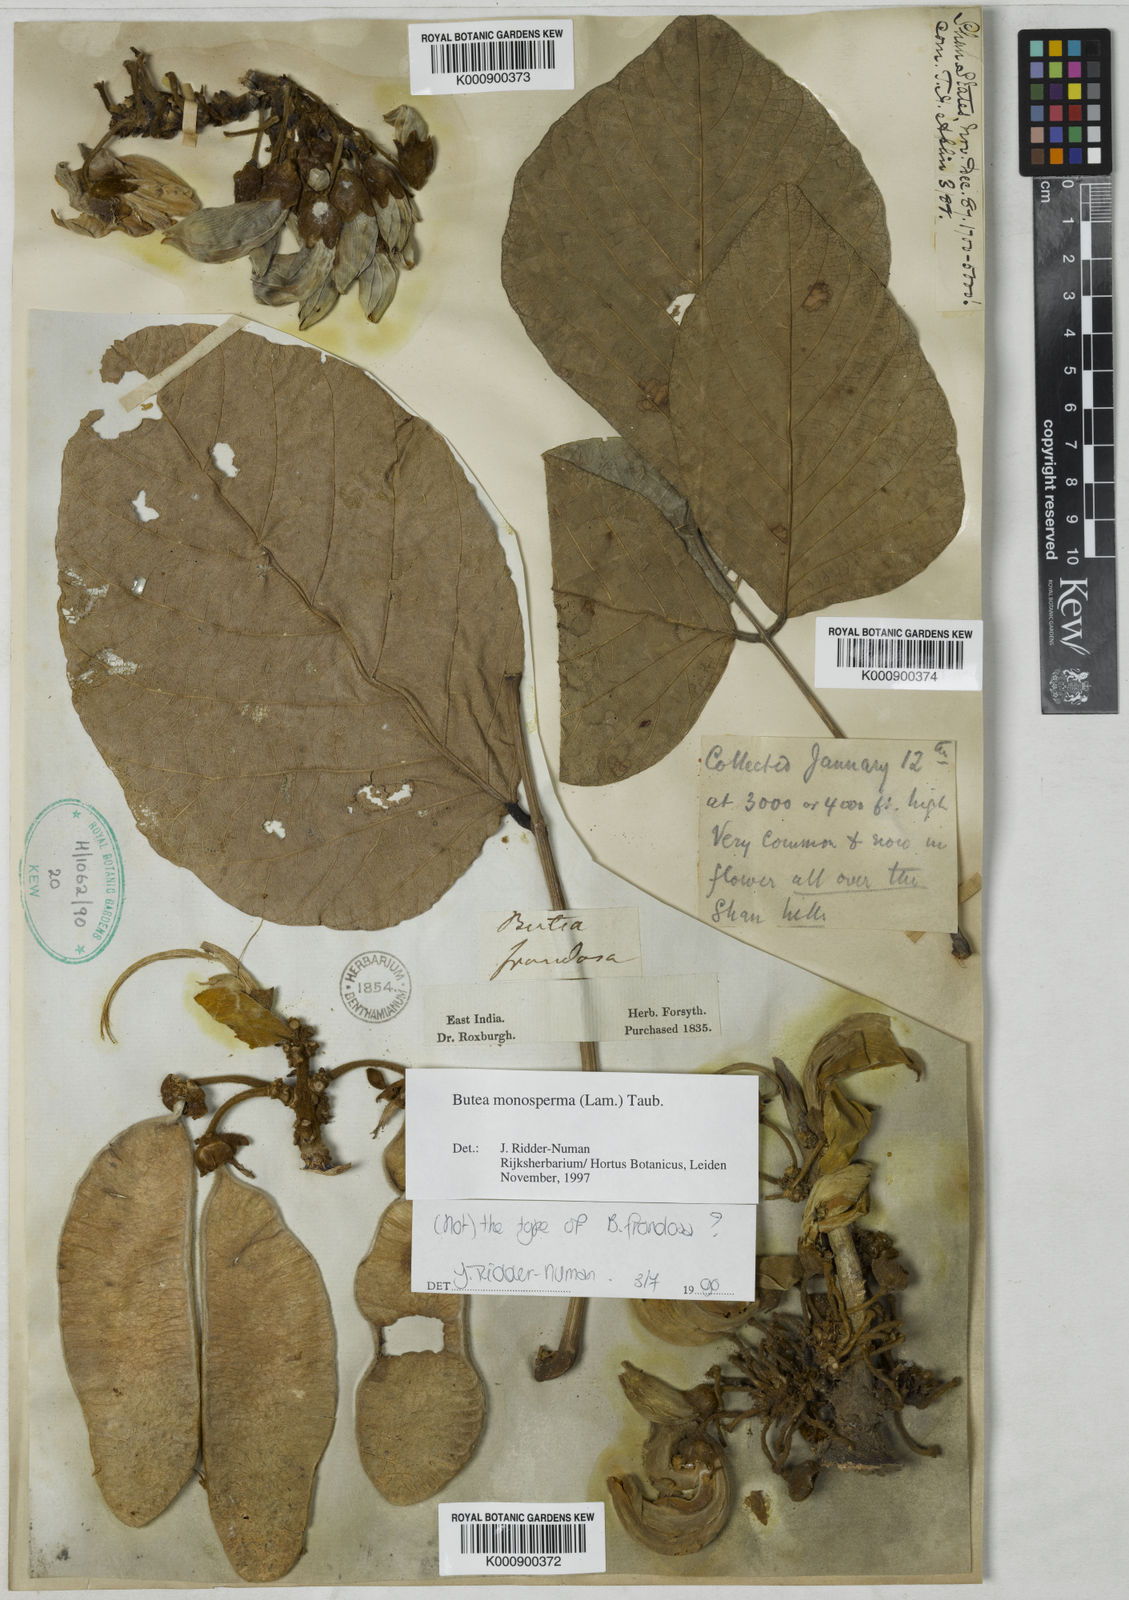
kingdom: Plantae
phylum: Tracheophyta
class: Magnoliopsida
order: Fabales
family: Fabaceae
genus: Butea
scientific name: Butea
